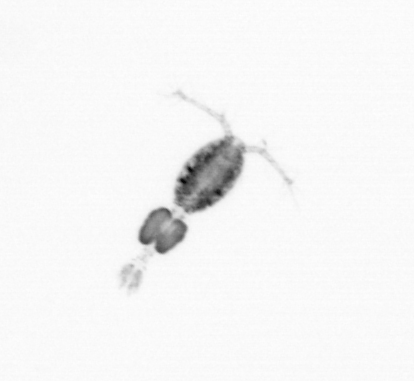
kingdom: Animalia
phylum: Arthropoda
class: Copepoda
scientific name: Copepoda
